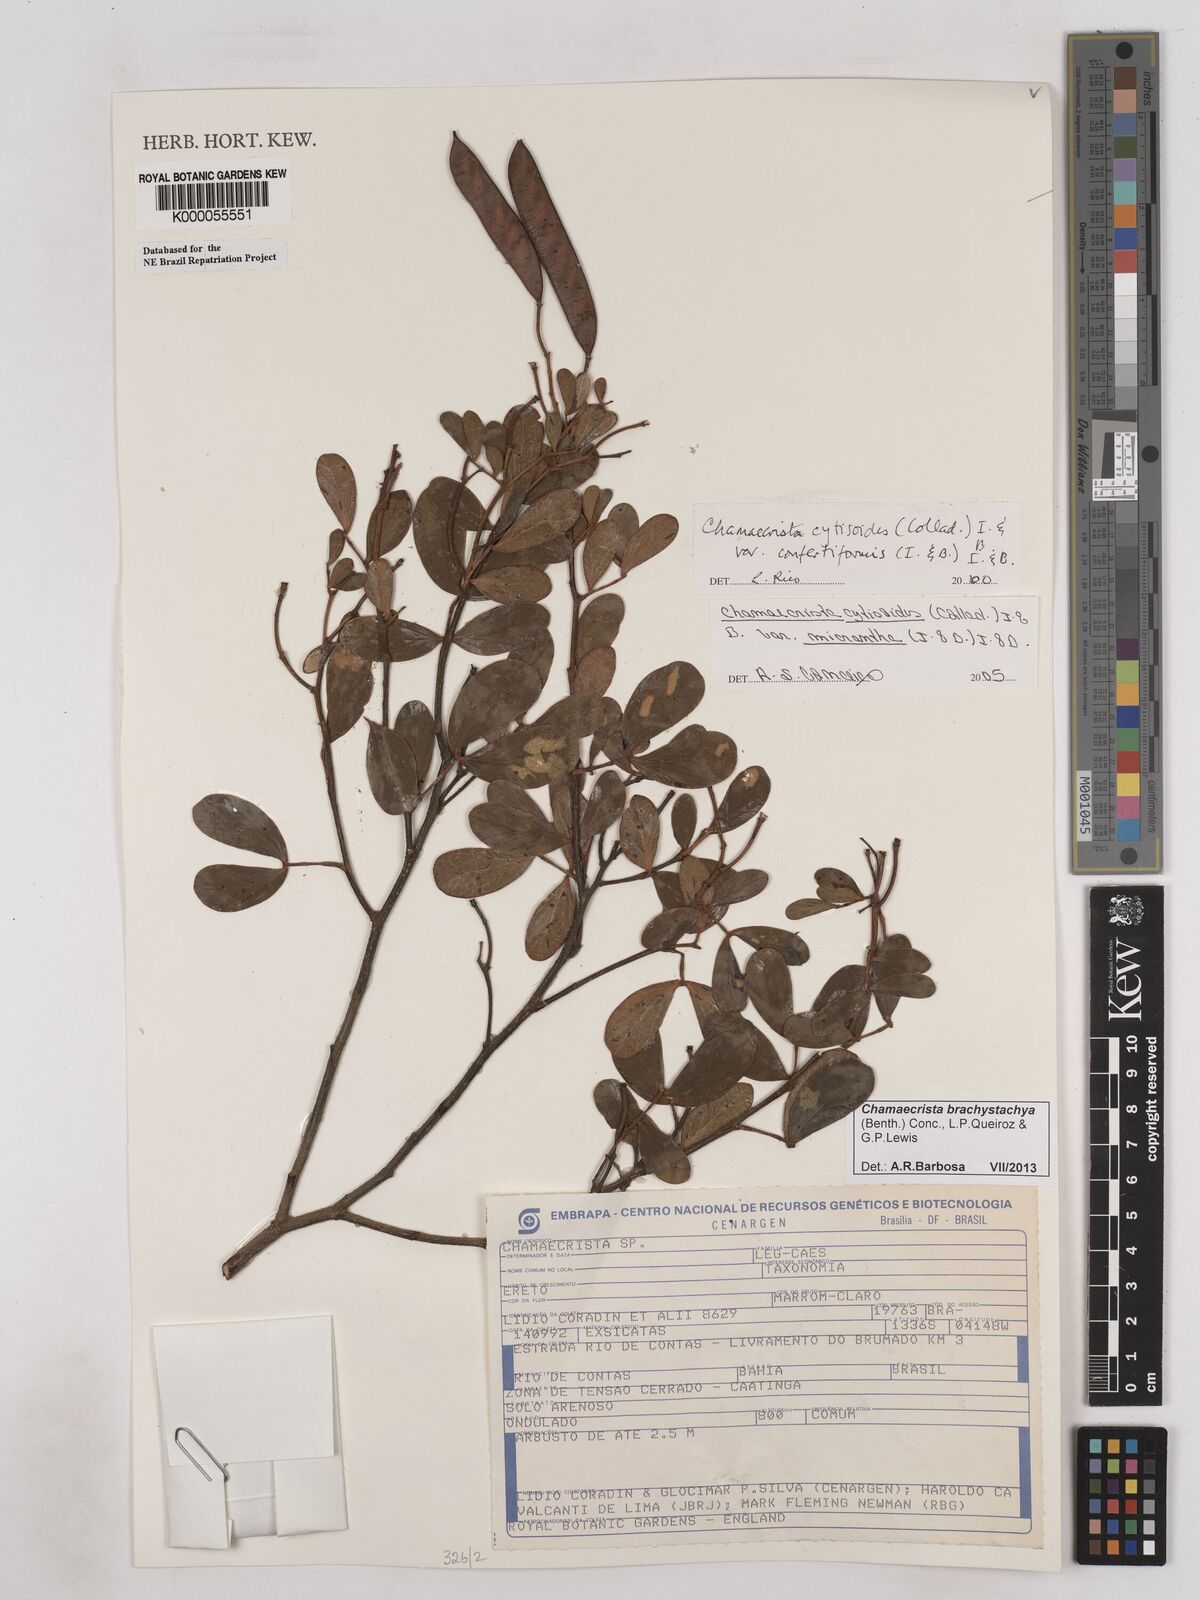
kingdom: Plantae
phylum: Tracheophyta
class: Magnoliopsida
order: Fabales
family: Fabaceae
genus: Chamaecrista
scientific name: Chamaecrista confertiformis
